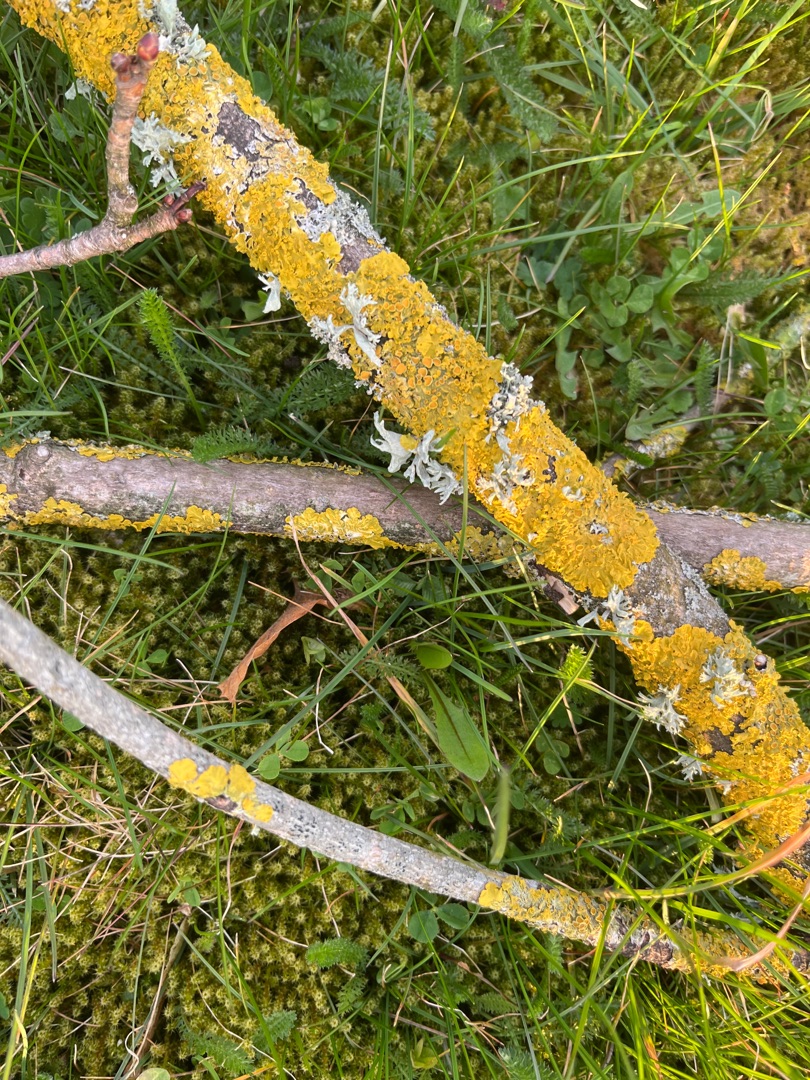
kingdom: Fungi
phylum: Ascomycota
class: Lecanoromycetes
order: Teloschistales
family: Teloschistaceae
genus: Xanthoria
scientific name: Xanthoria parietina
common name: Almindelig væggelav
